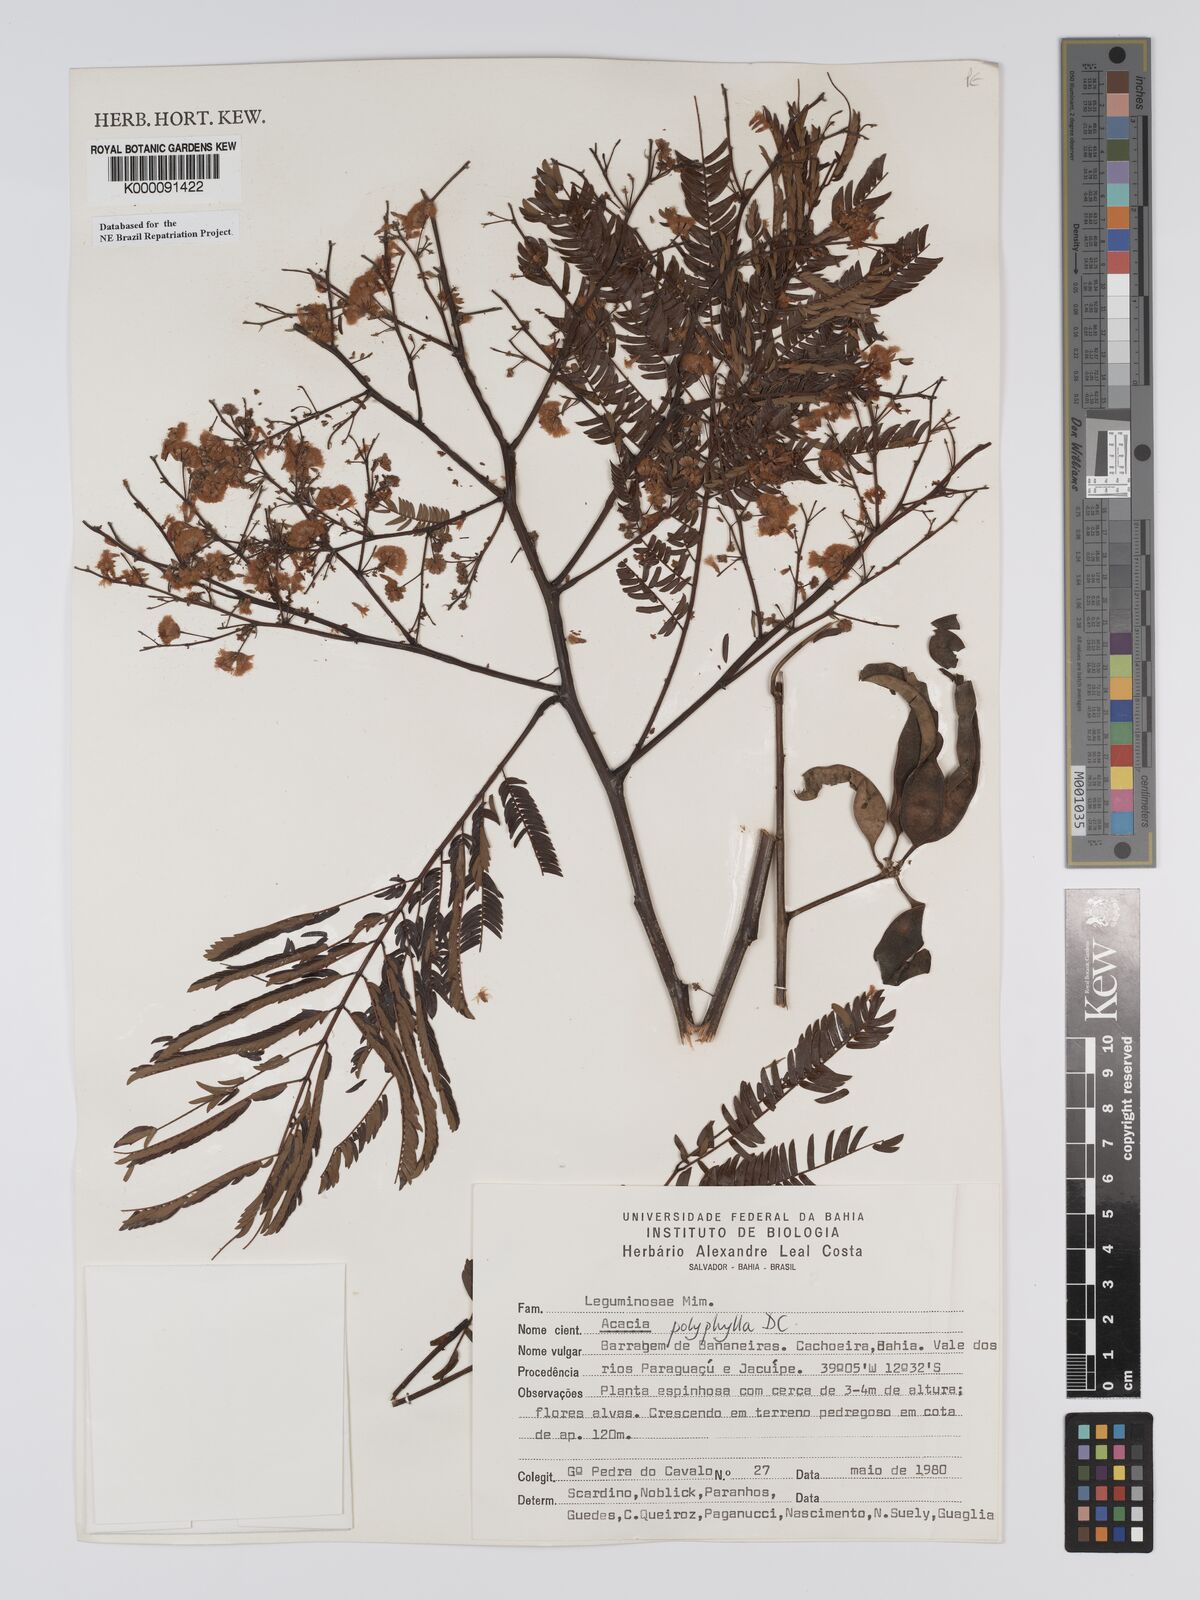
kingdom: Plantae
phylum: Tracheophyta
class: Magnoliopsida
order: Fabales
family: Fabaceae
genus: Senegalia
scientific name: Senegalia polyphylla
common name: White-tamarind
